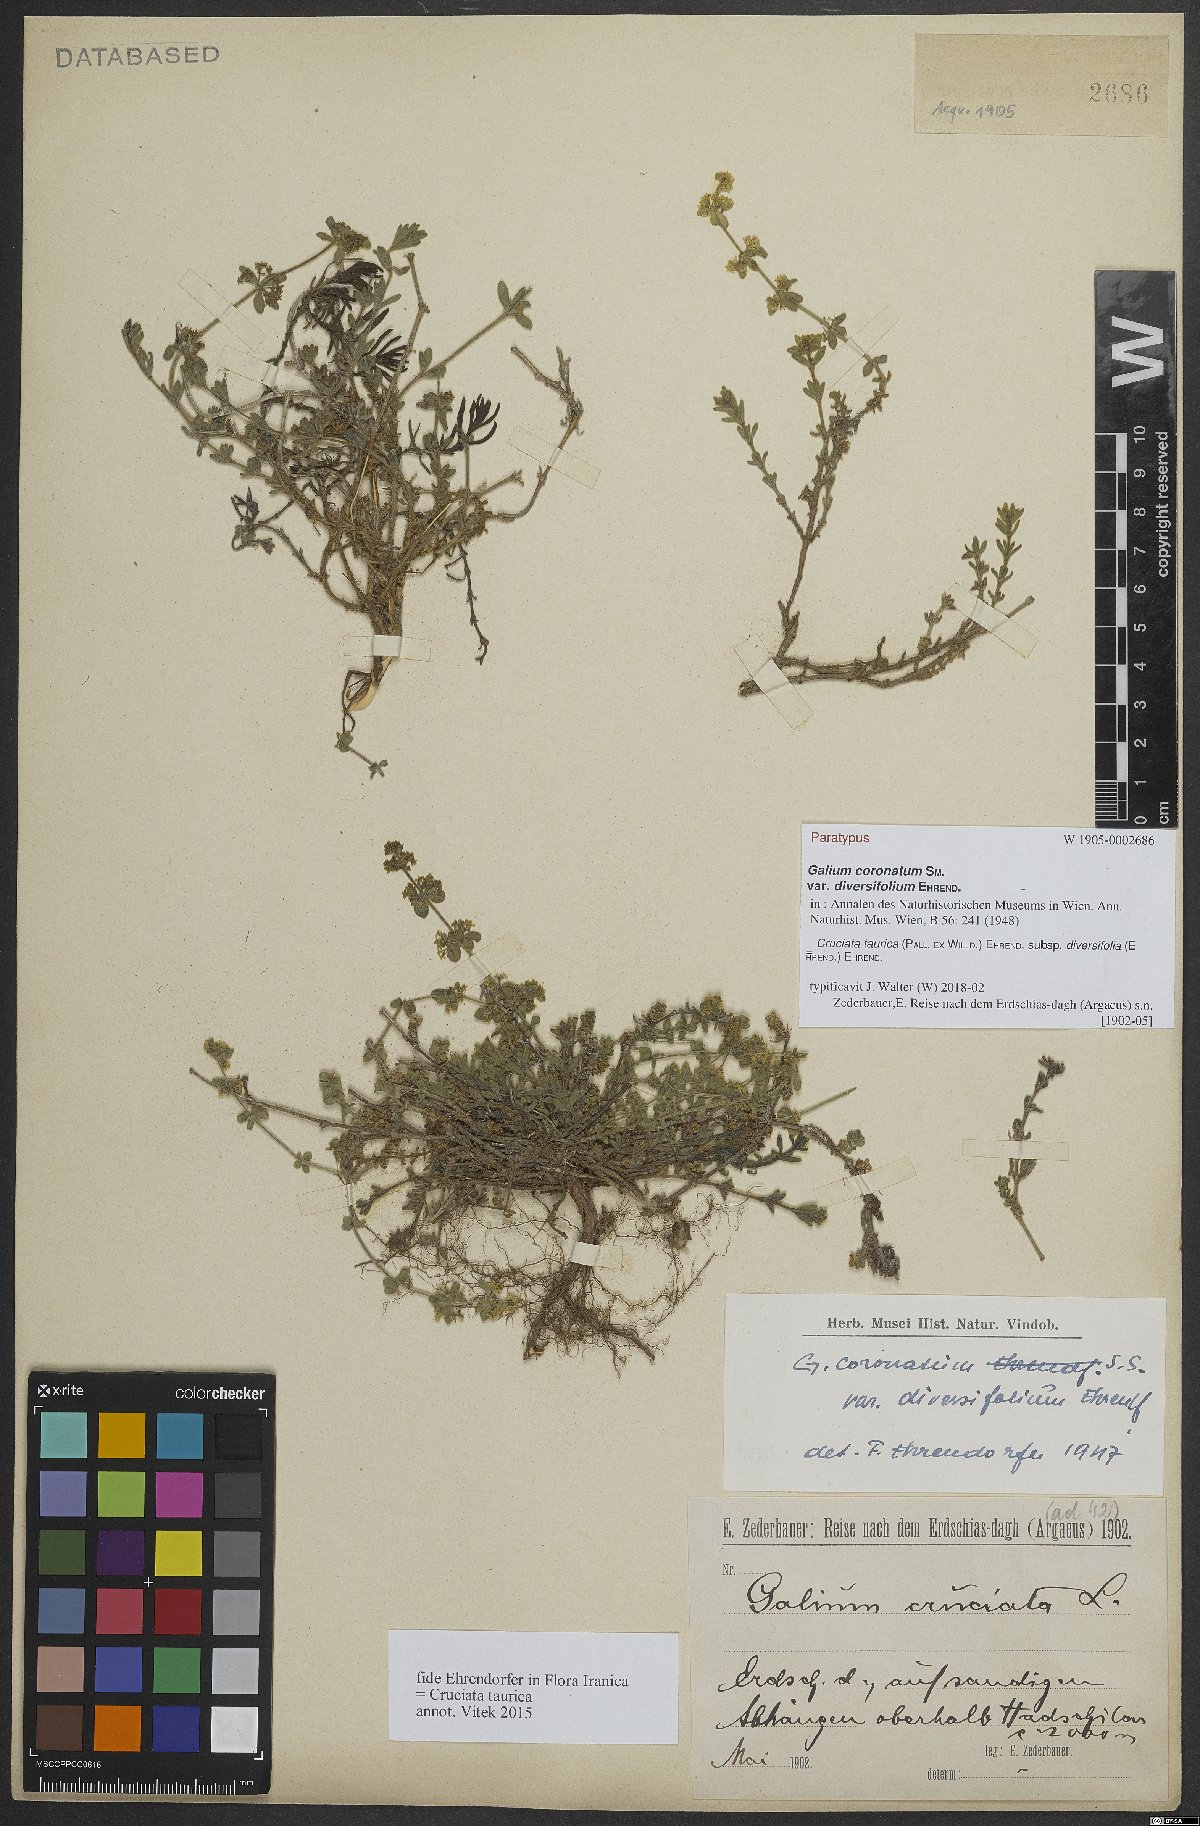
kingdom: Plantae
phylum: Tracheophyta
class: Magnoliopsida
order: Gentianales
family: Rubiaceae
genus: Cruciata
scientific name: Cruciata taurica
